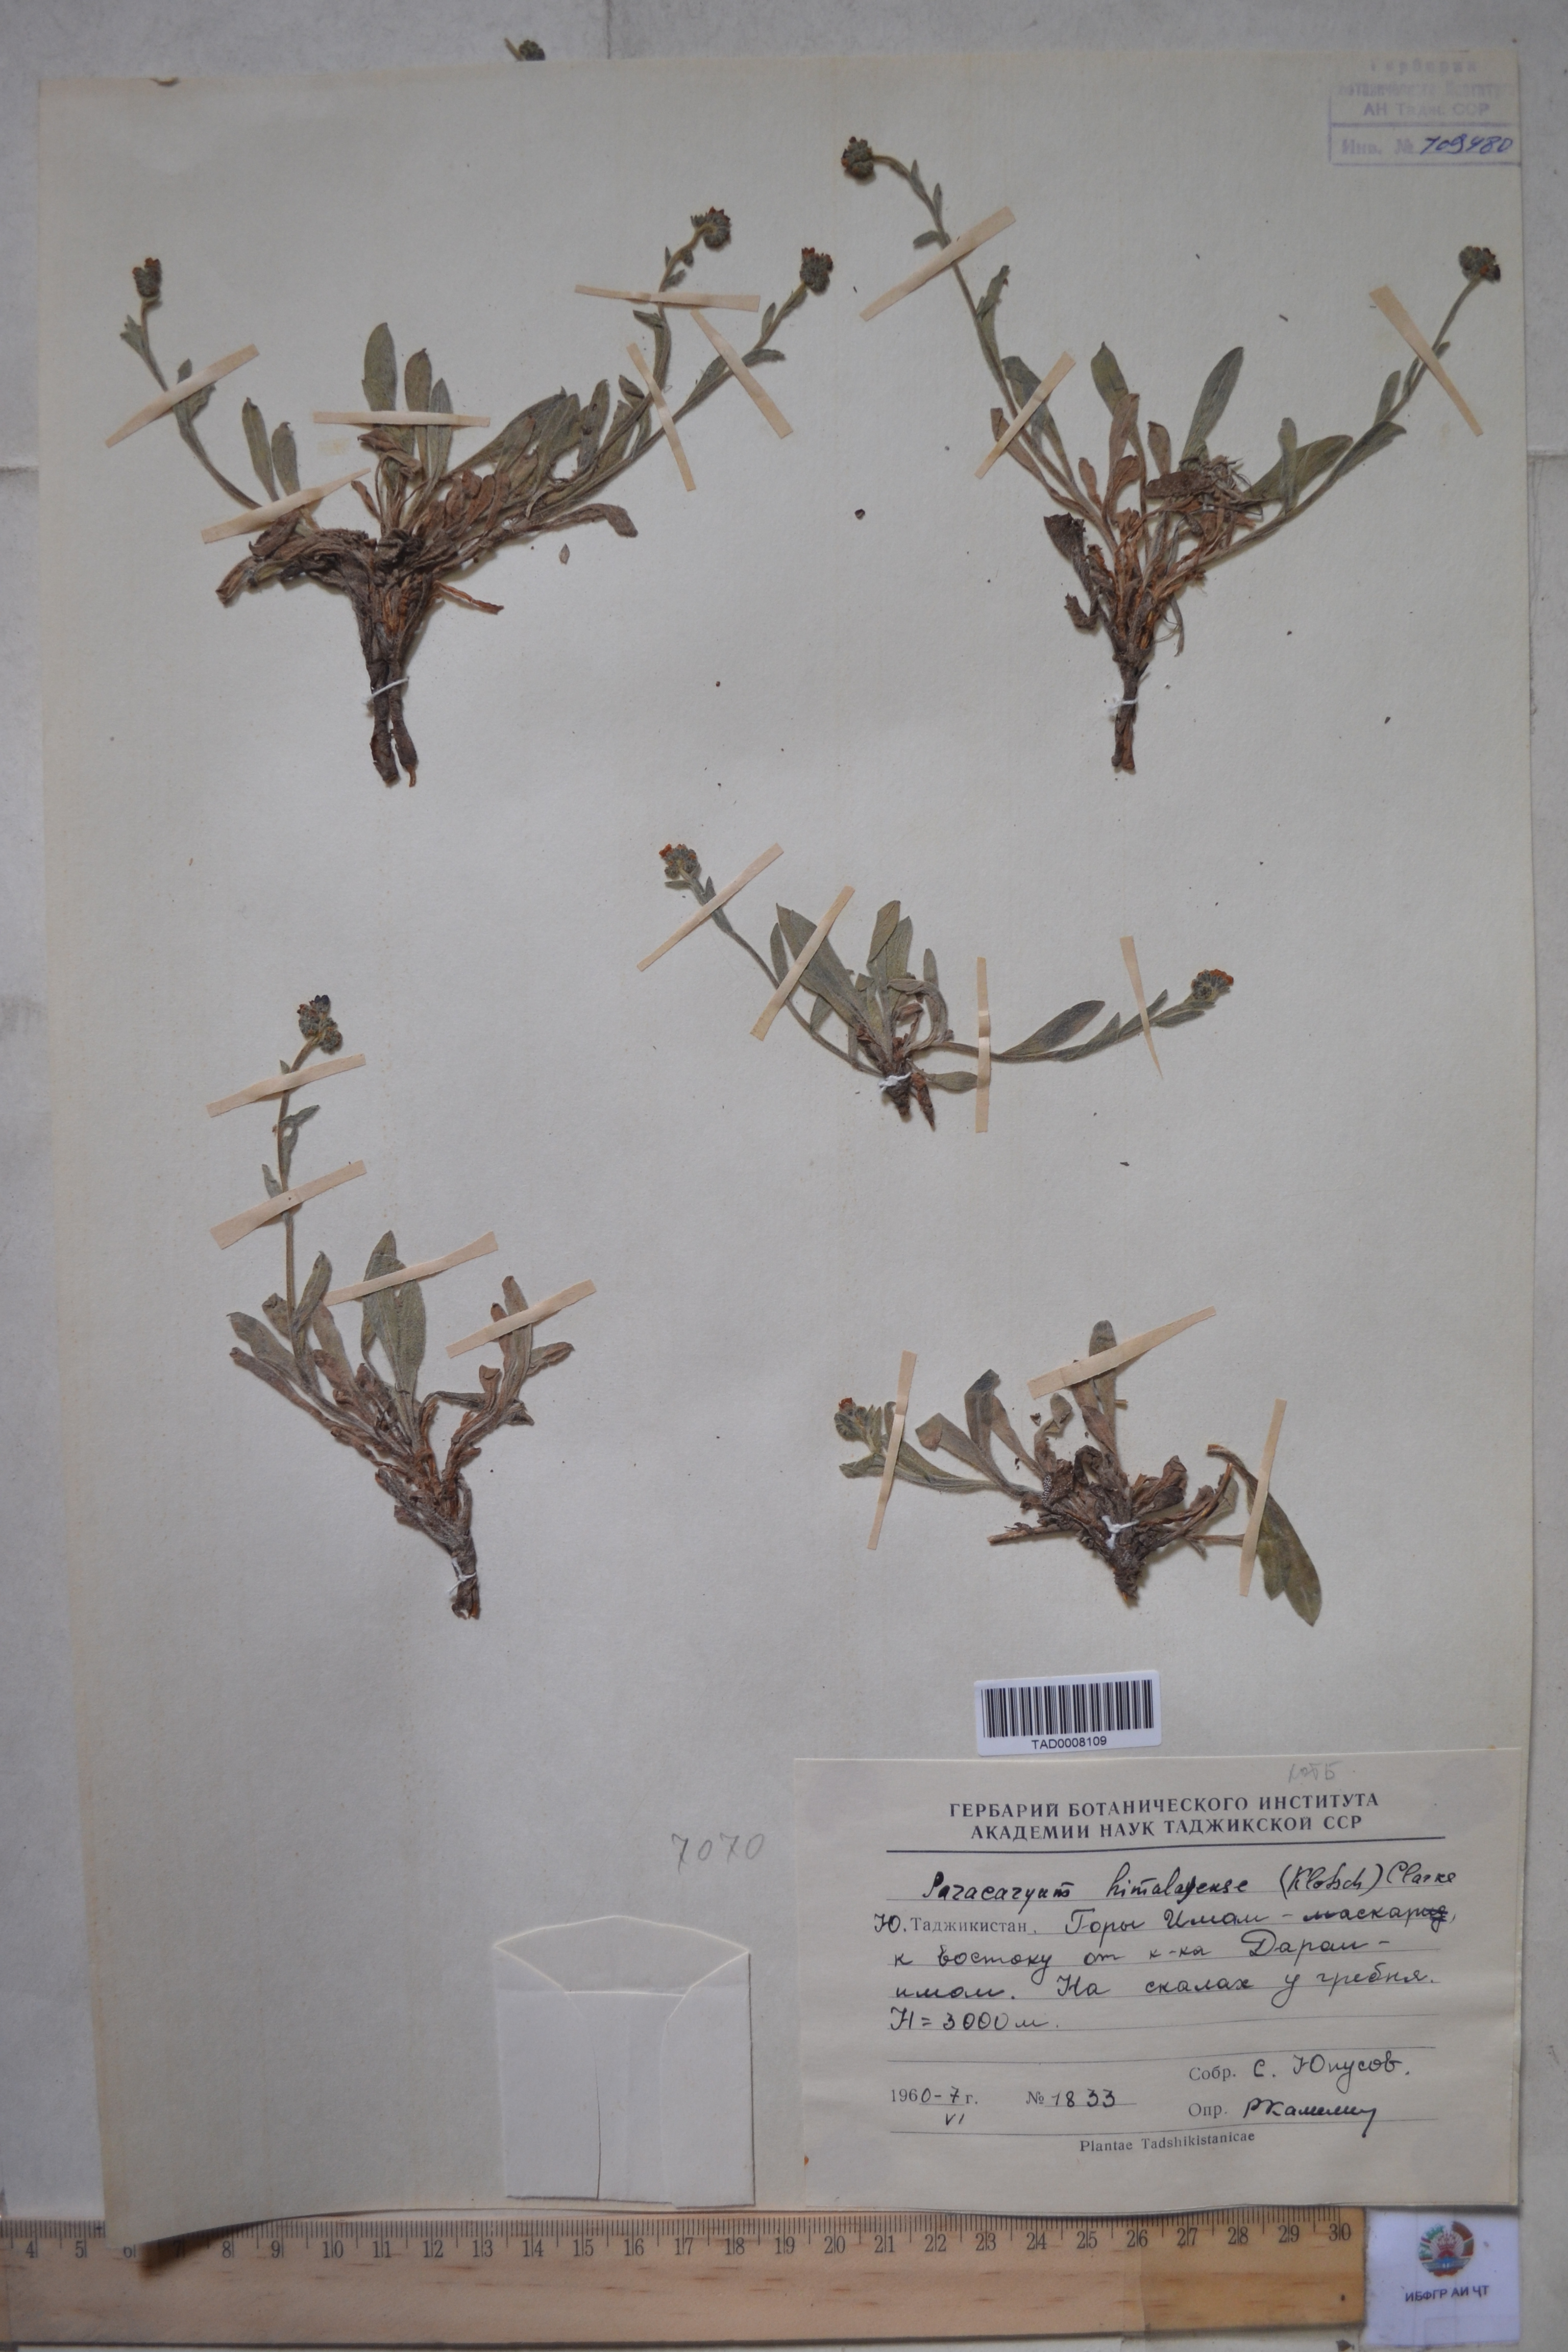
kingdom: Plantae
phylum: Tracheophyta
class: Magnoliopsida
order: Boraginales
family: Boraginaceae
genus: Paracaryum
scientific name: Paracaryum himalayense
